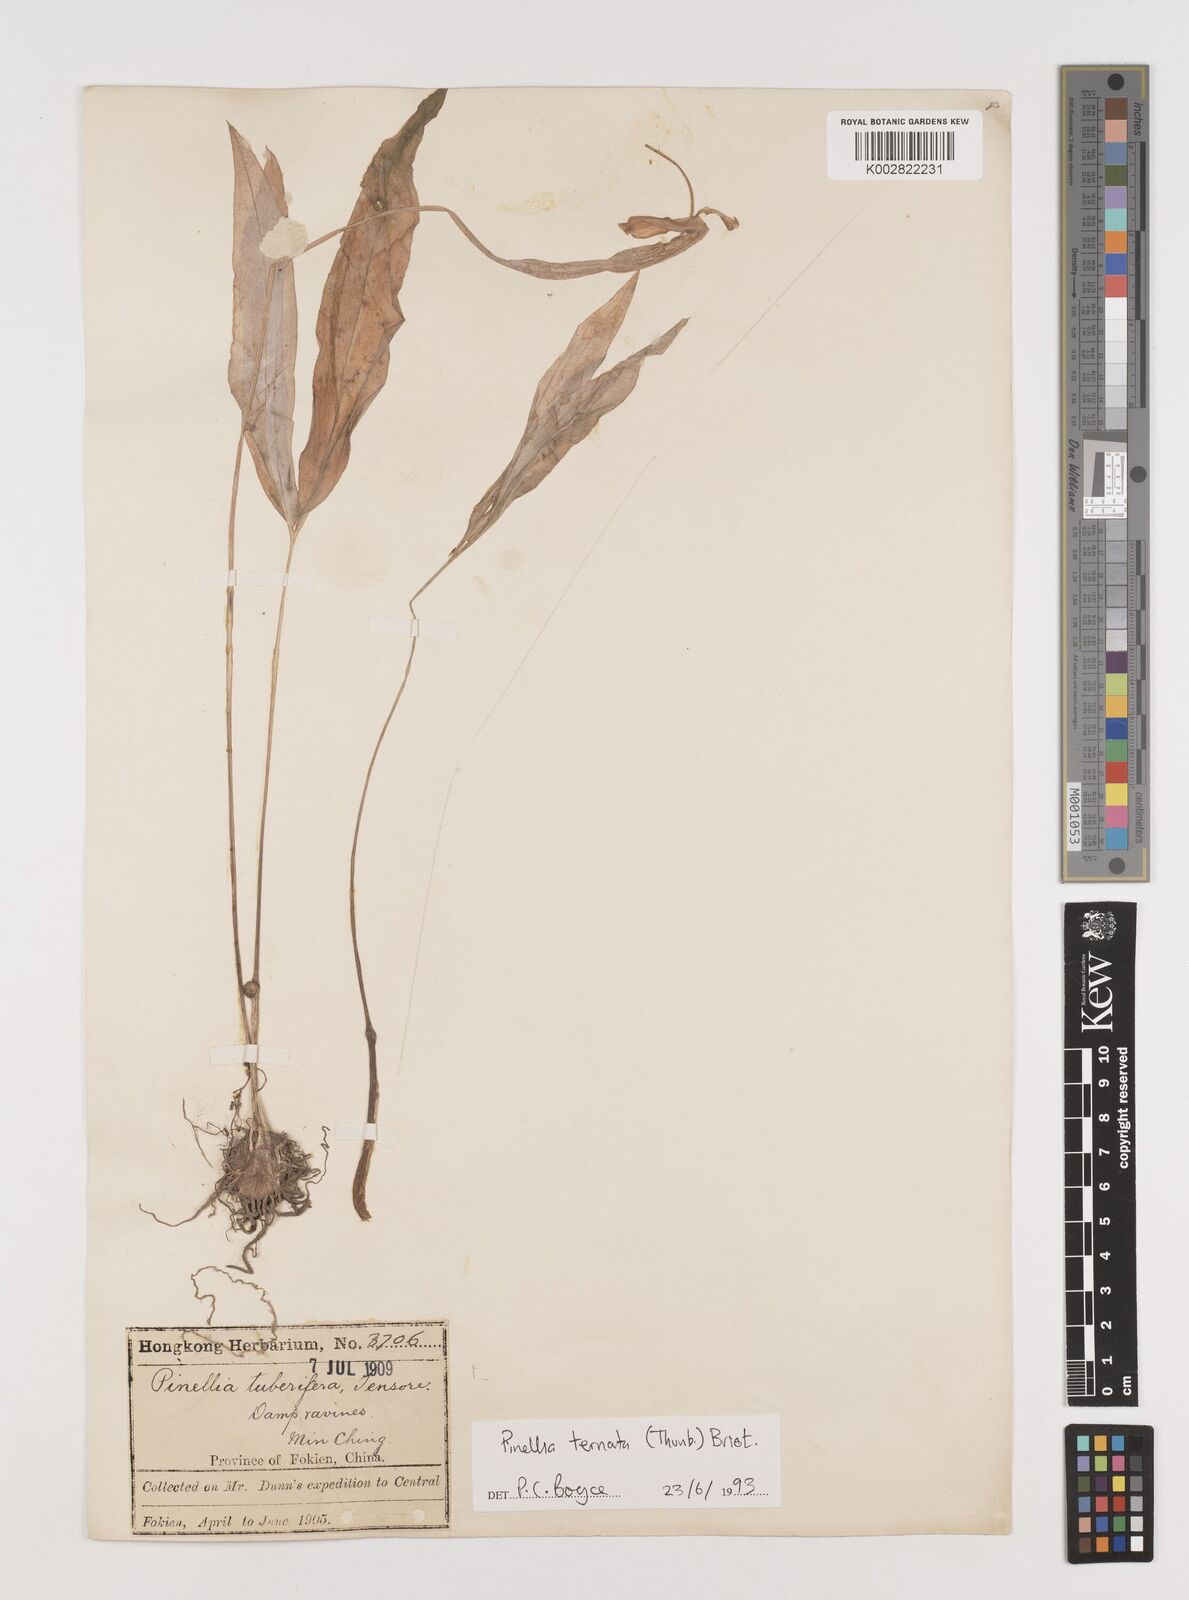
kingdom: Plantae
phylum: Tracheophyta
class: Liliopsida
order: Alismatales
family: Araceae
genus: Pinellia
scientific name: Pinellia ternata
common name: Pinellia
